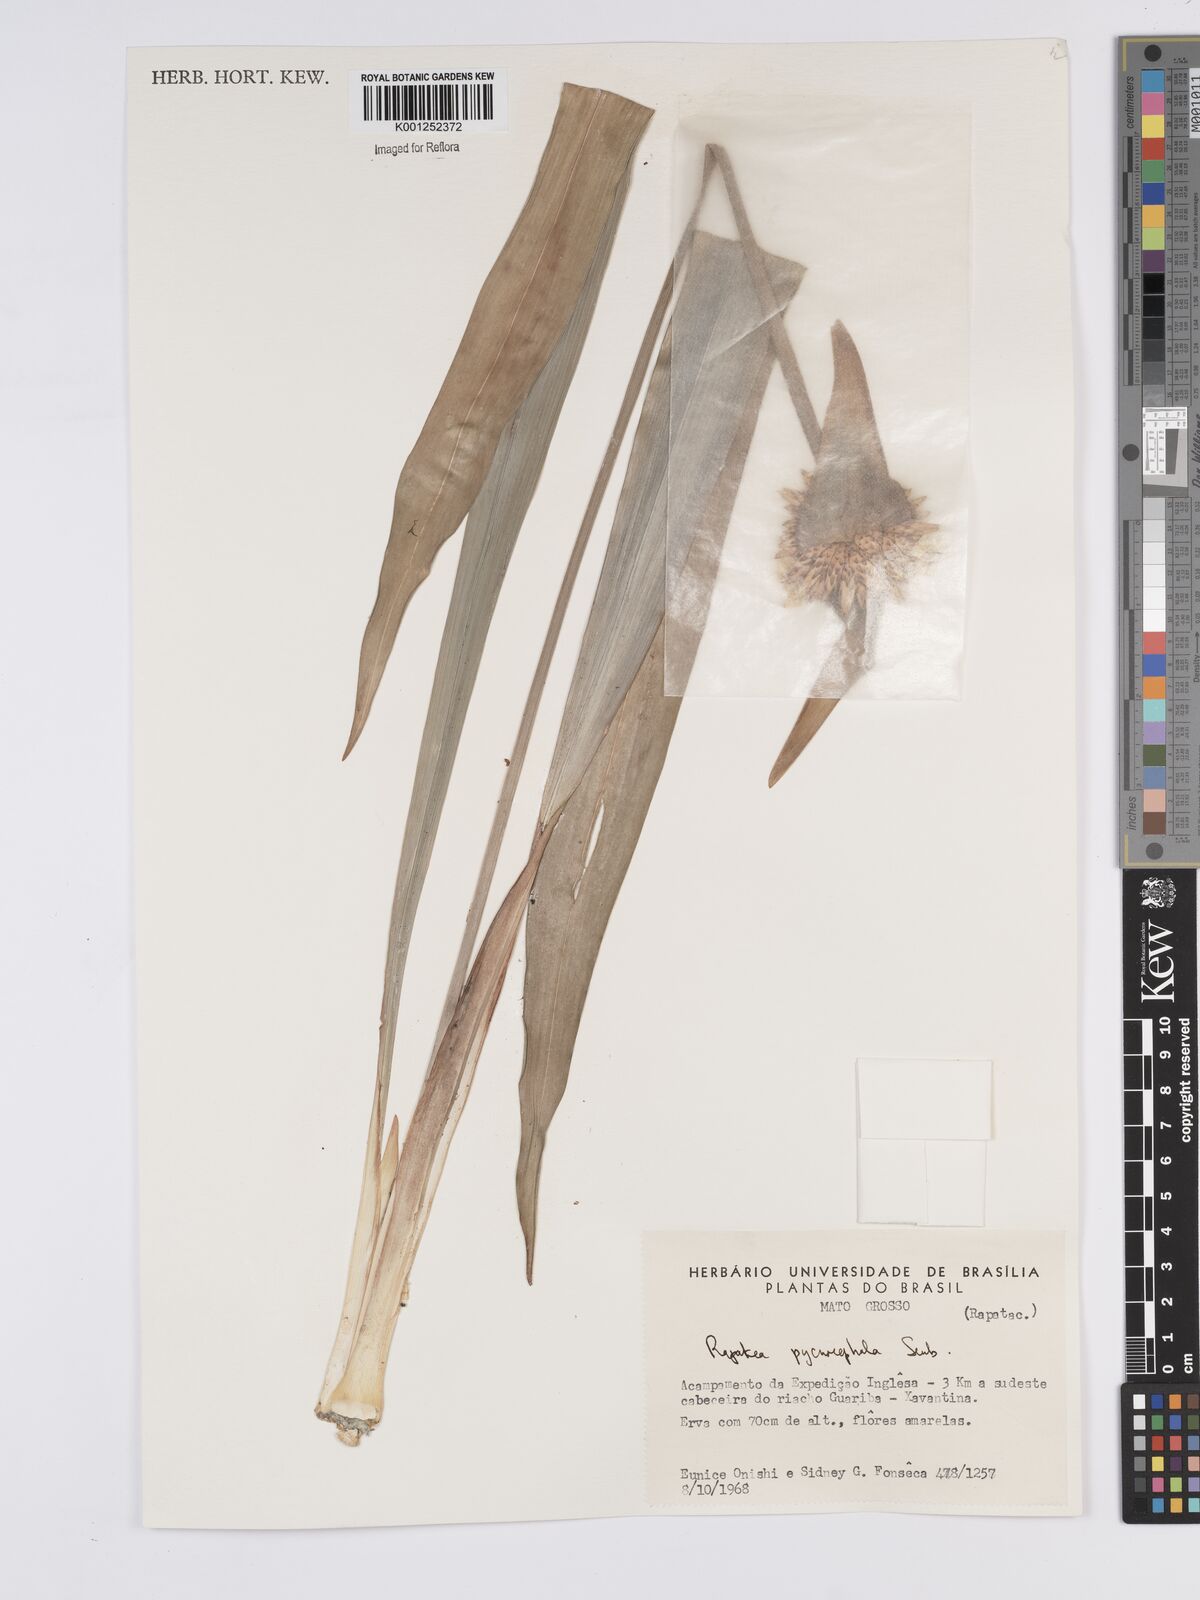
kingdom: Plantae
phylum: Tracheophyta
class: Liliopsida
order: Poales
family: Rapateaceae
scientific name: Rapateaceae
